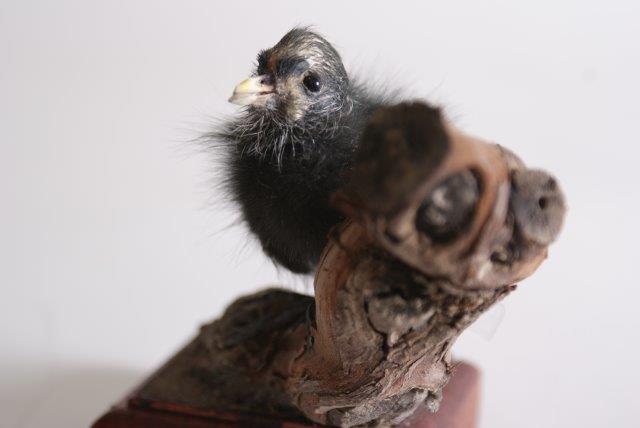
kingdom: Animalia
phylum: Chordata
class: Aves
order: Gruiformes
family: Rallidae
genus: Gallinula
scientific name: Gallinula chloropus
